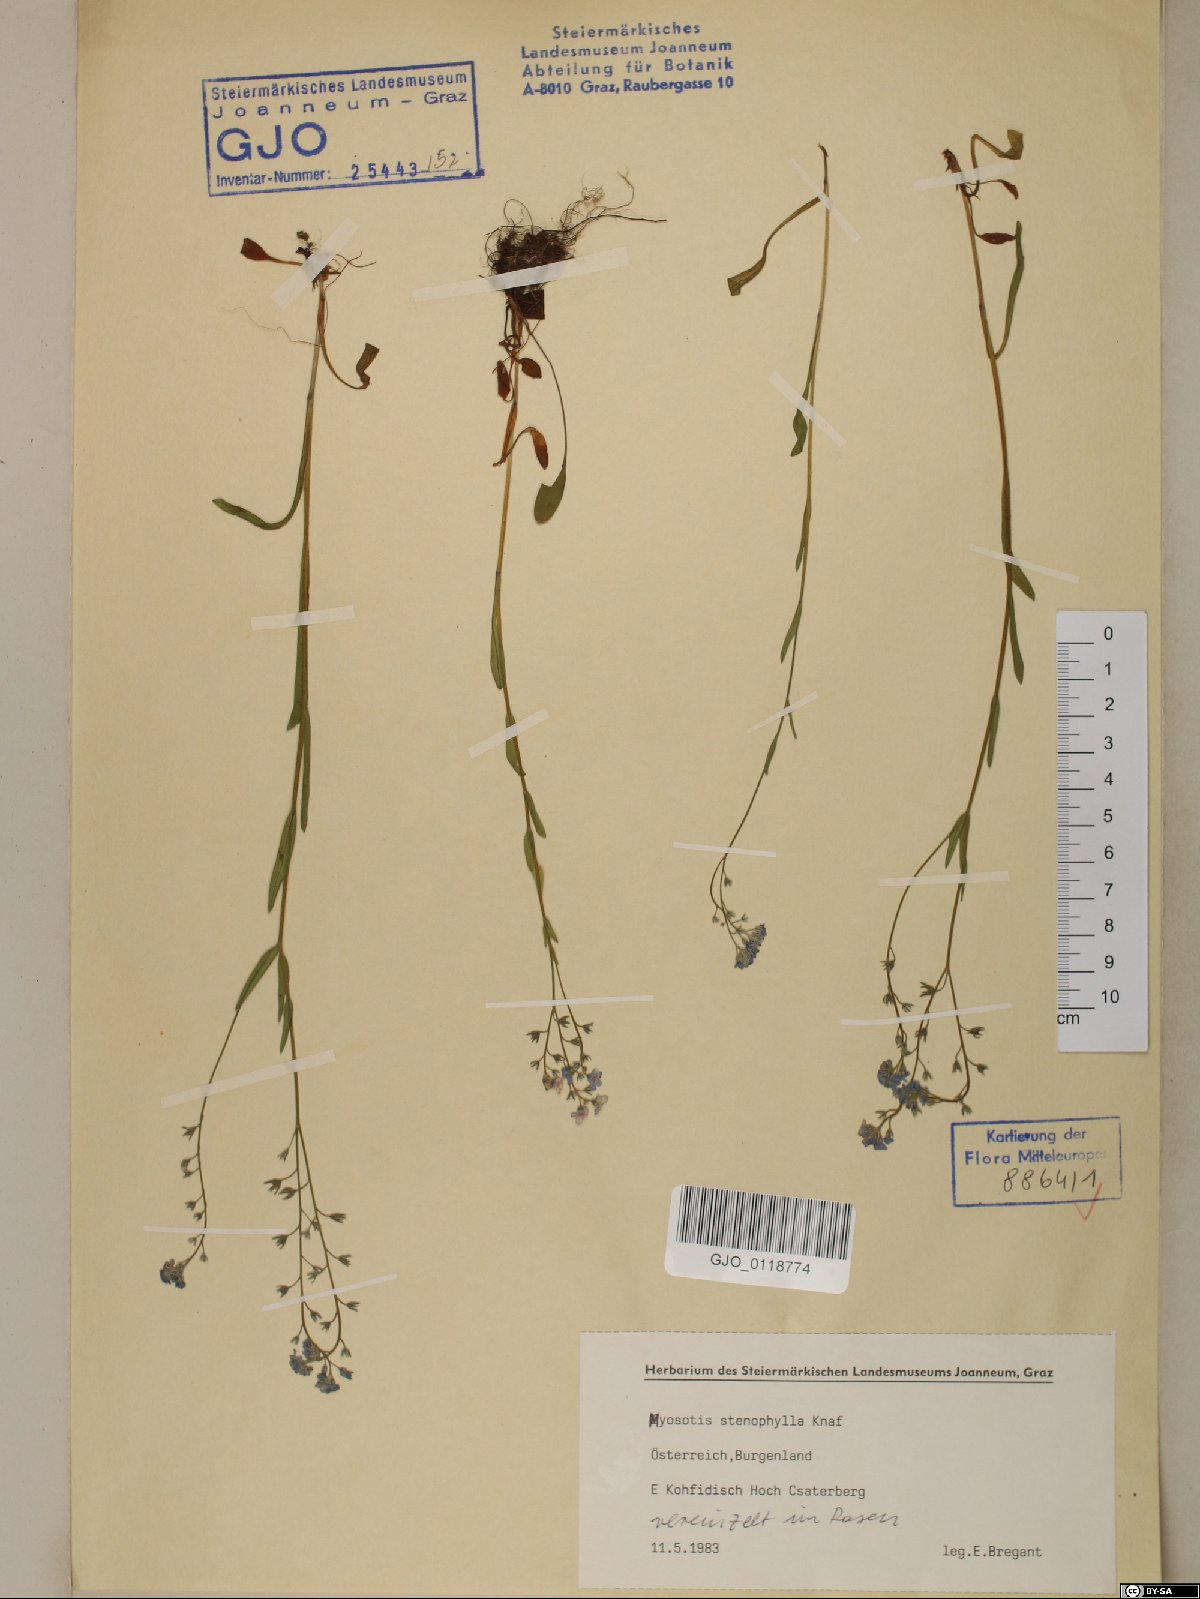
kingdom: Plantae
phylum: Tracheophyta
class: Magnoliopsida
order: Boraginales
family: Boraginaceae
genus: Myosotis
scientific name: Myosotis stenophylla
